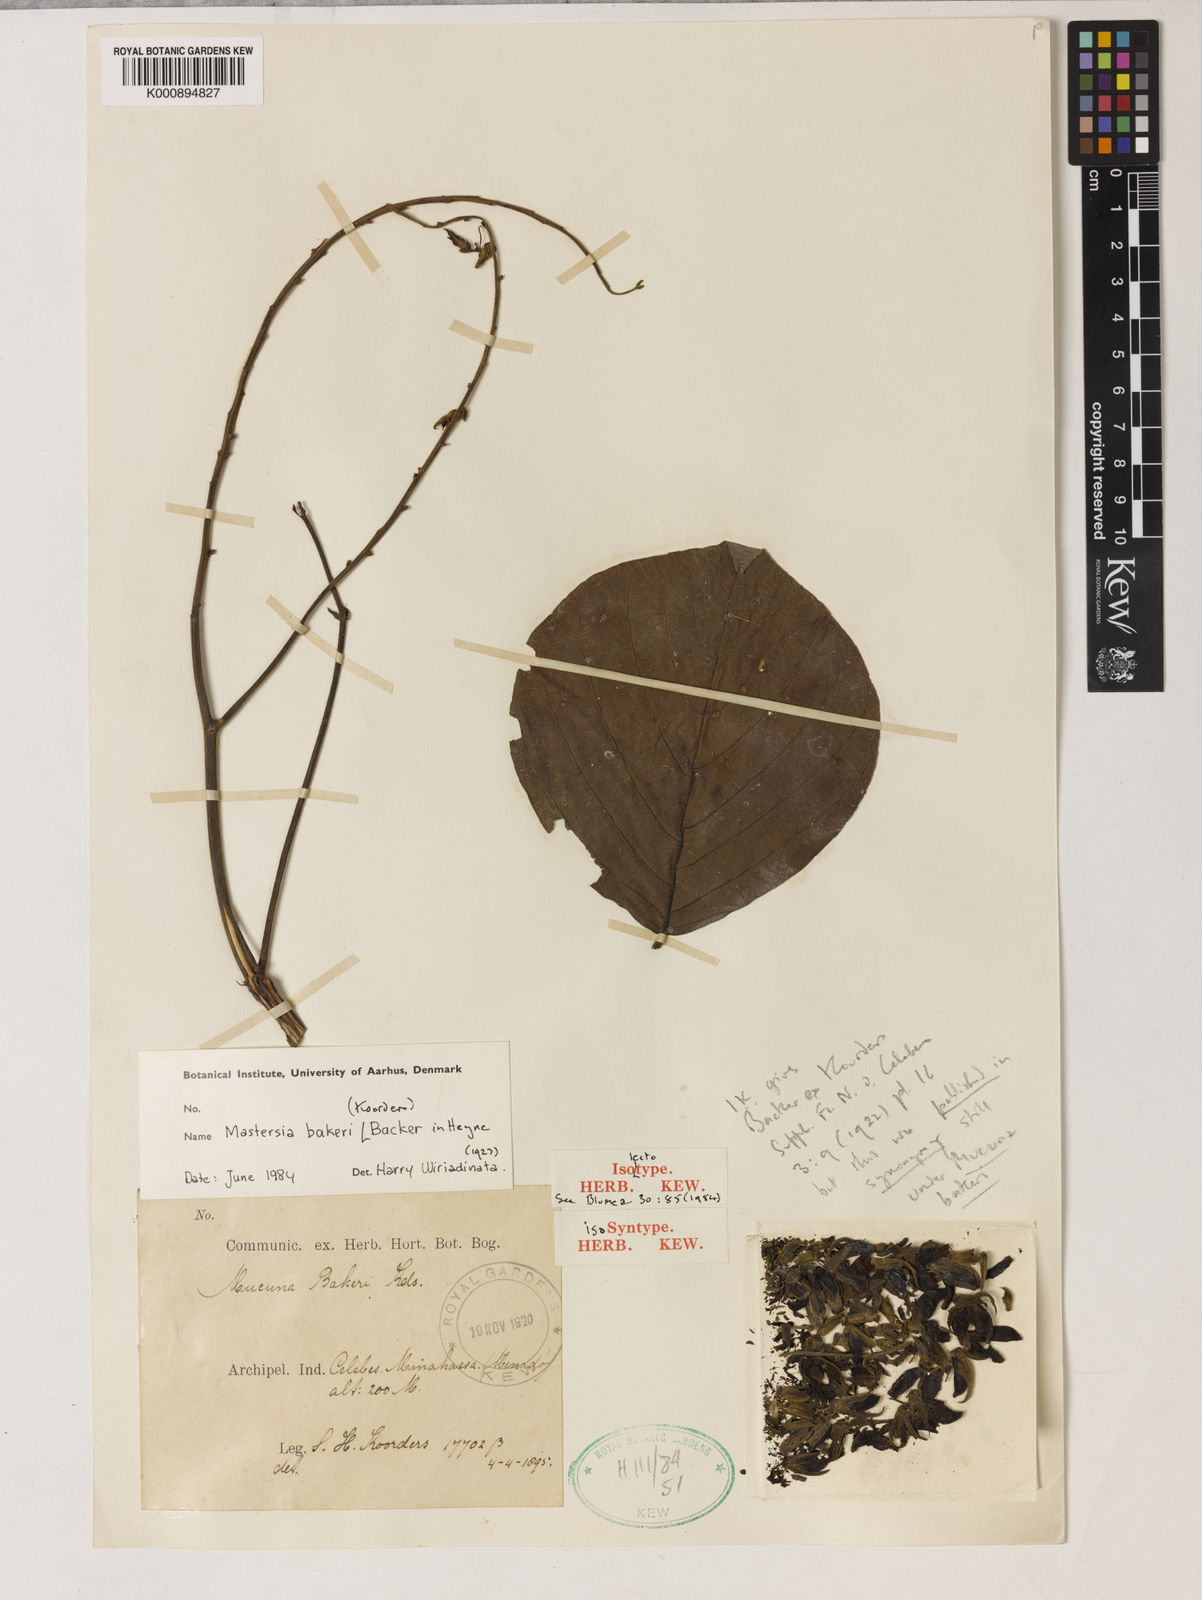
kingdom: Plantae
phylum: Tracheophyta
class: Magnoliopsida
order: Fabales
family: Fabaceae
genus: Mastersia
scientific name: Mastersia
